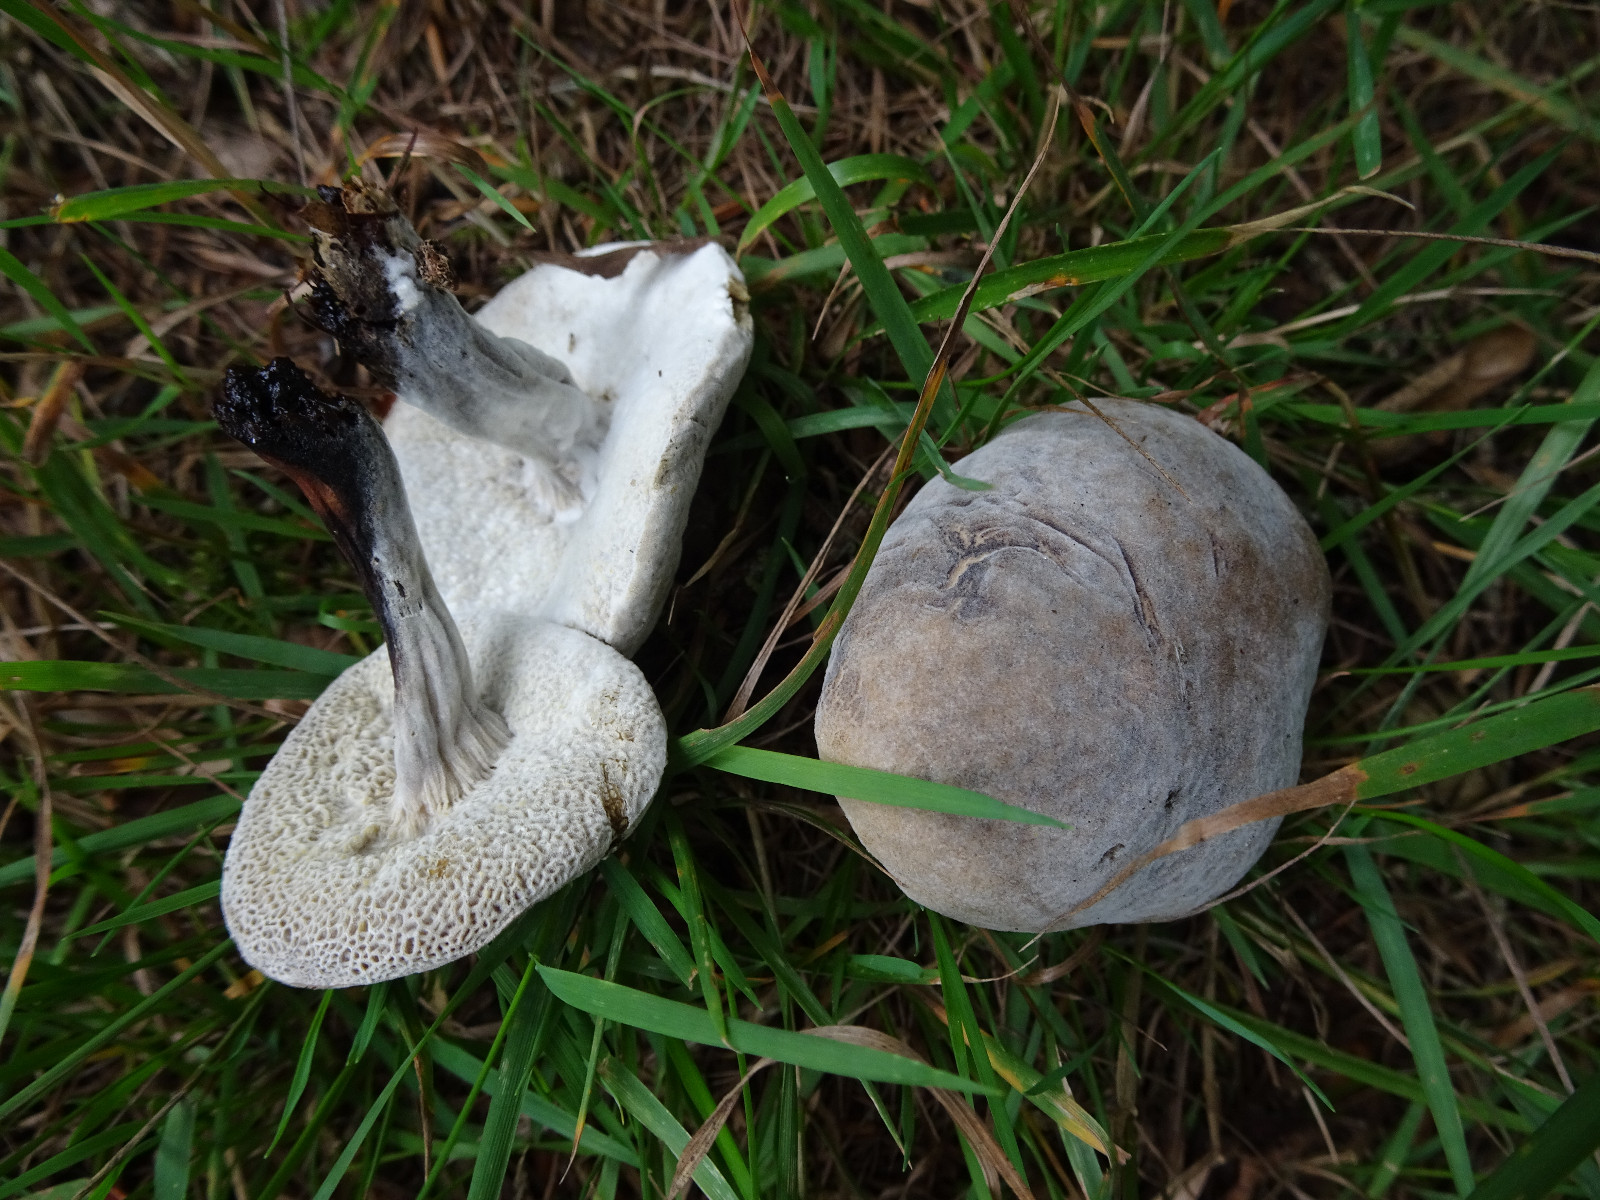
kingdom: Fungi
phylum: Ascomycota
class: Sordariomycetes
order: Hypocreales
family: Hypocreaceae
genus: Hypomyces
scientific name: Hypomyces microspermus
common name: dværgrørhat-snylteskorpe
